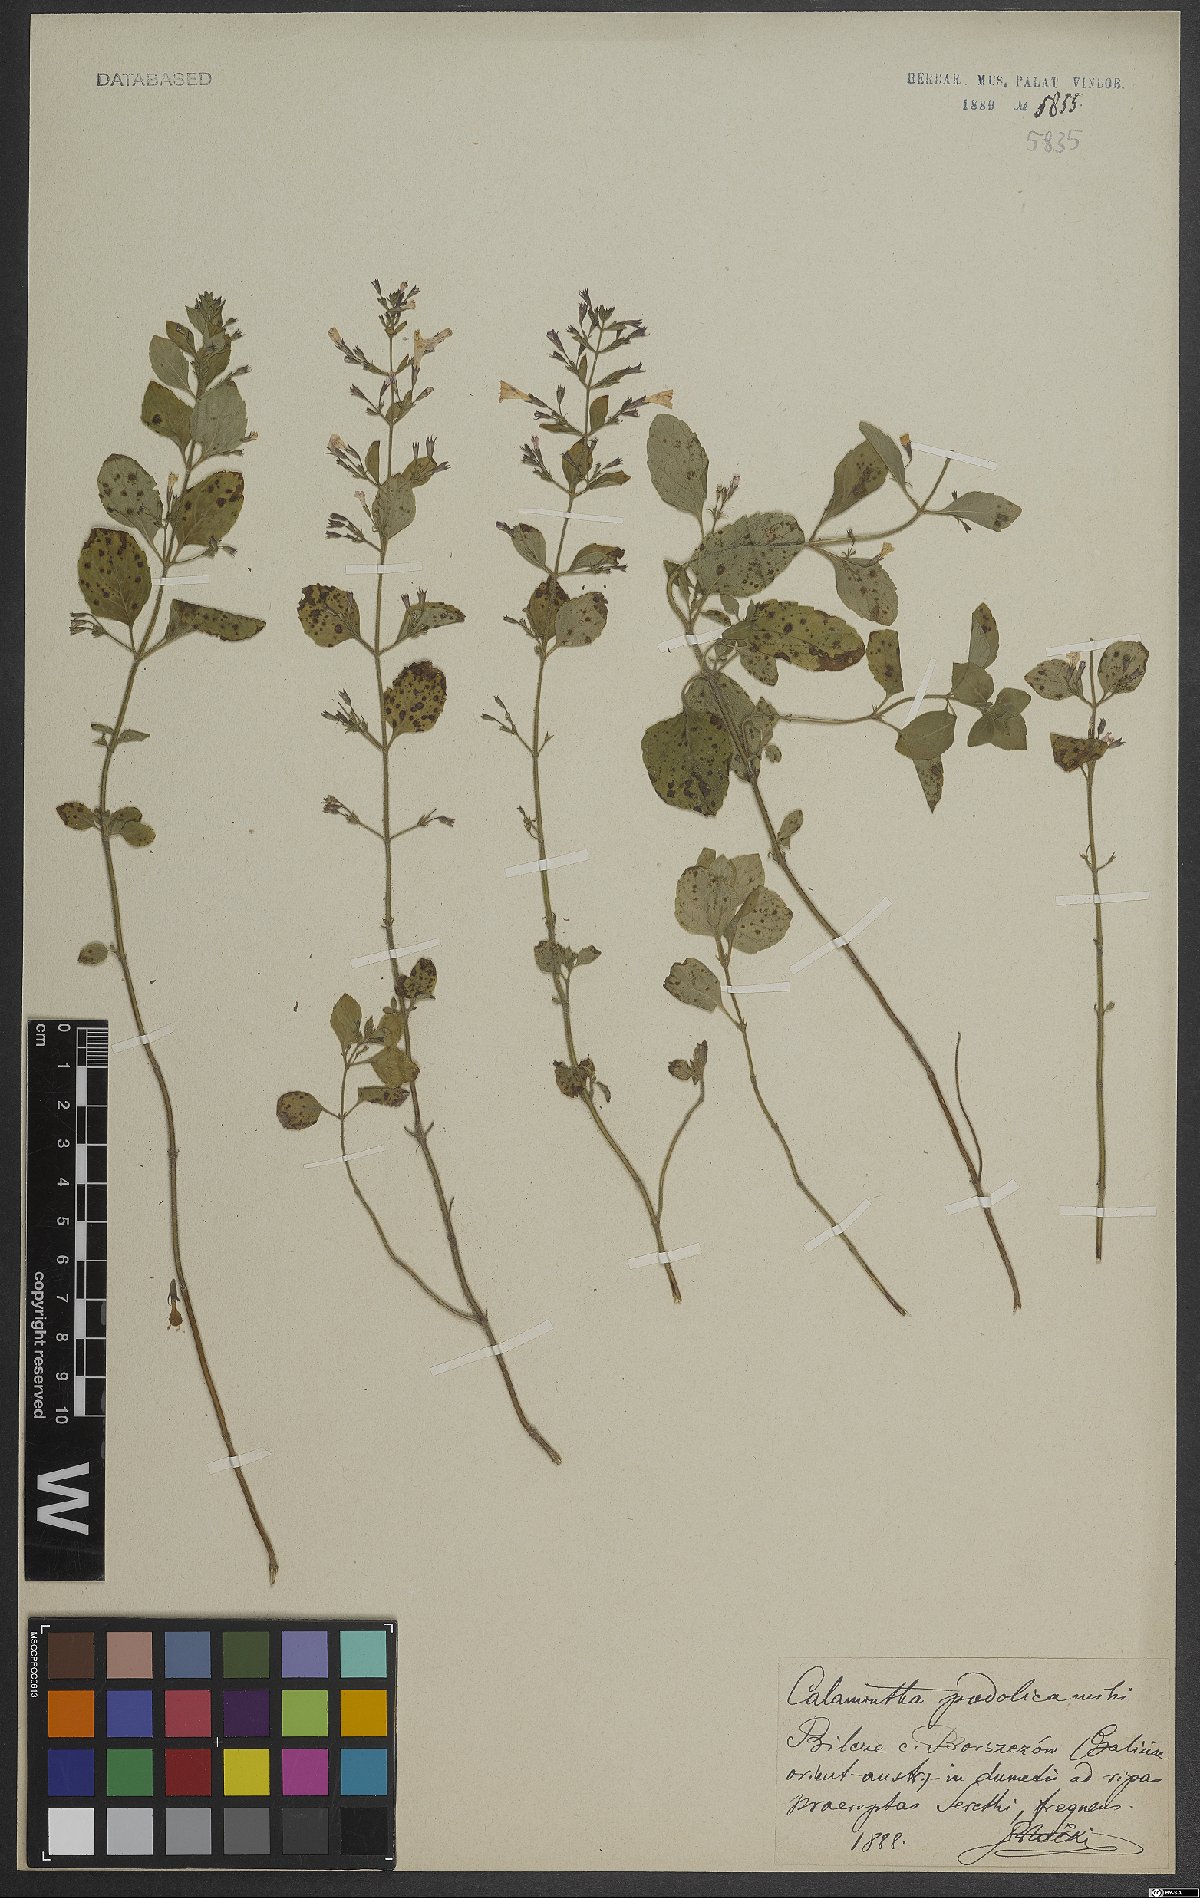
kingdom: Plantae
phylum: Tracheophyta
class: Magnoliopsida
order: Lamiales
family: Lamiaceae
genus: Calamintha
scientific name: Calamintha
